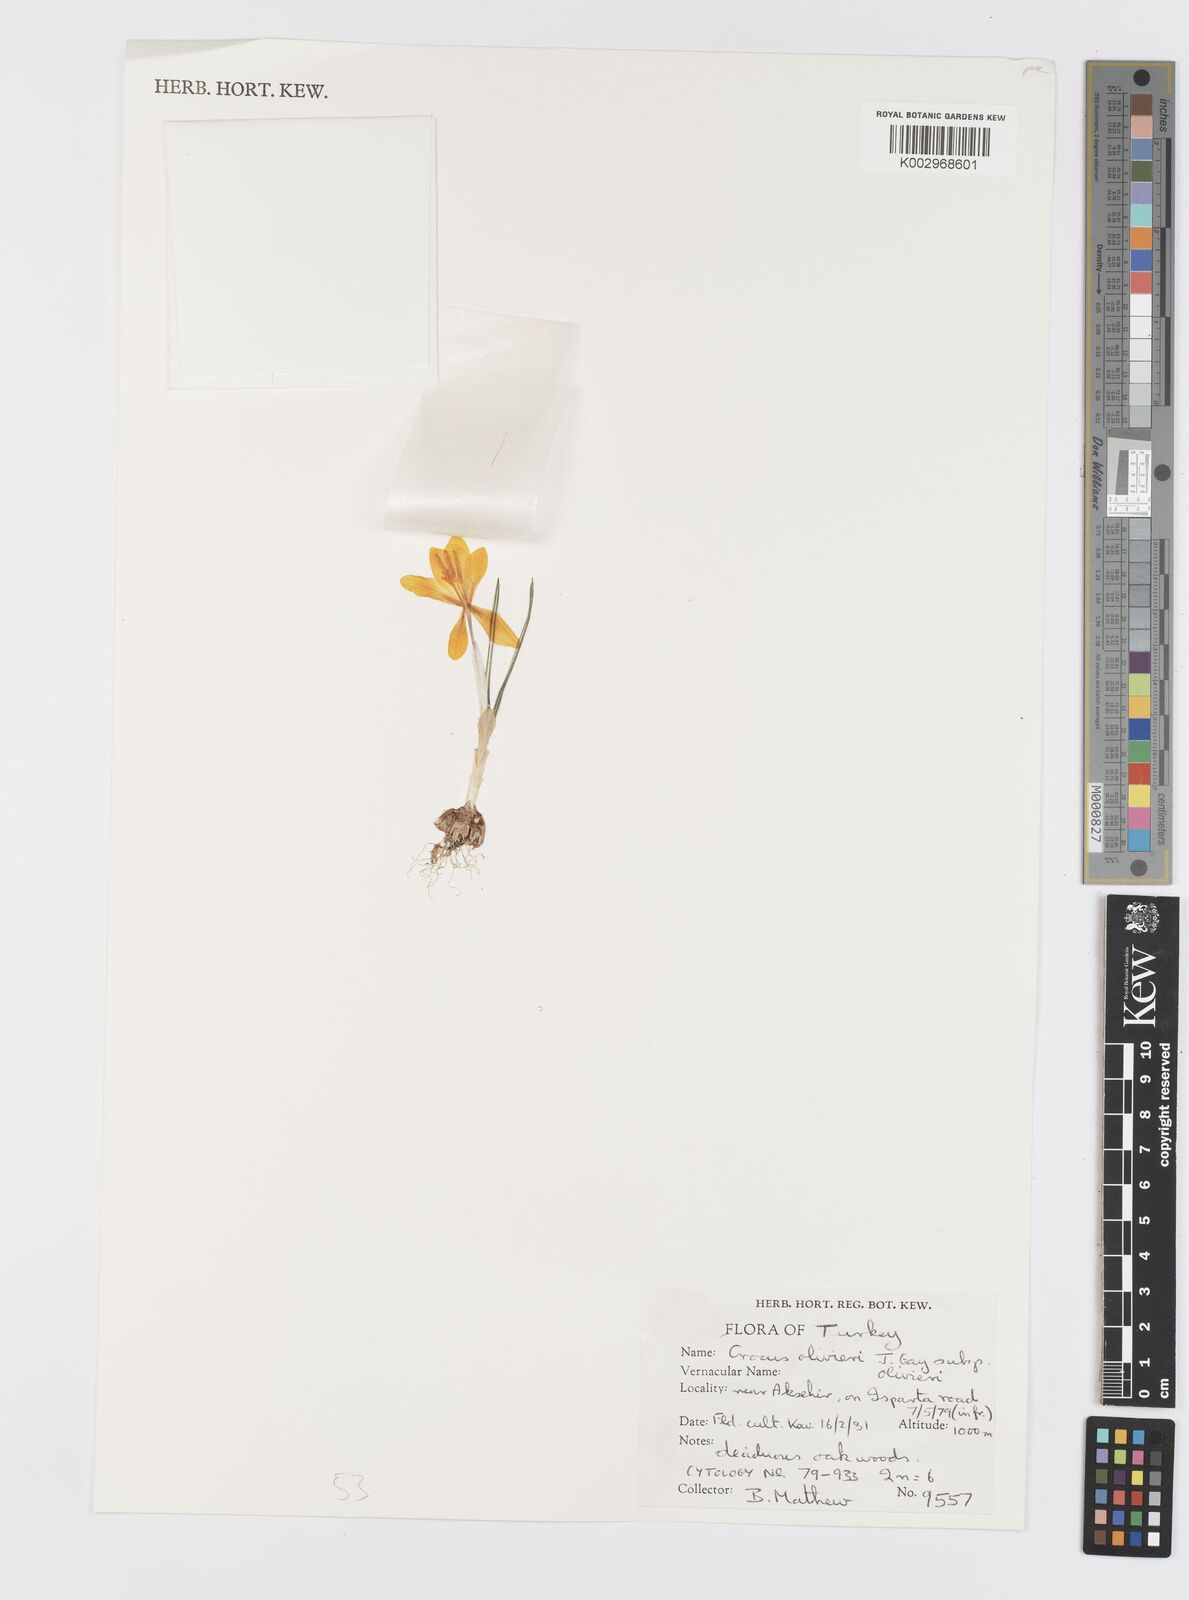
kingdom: Plantae
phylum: Tracheophyta
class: Liliopsida
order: Asparagales
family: Iridaceae
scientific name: Iridaceae
